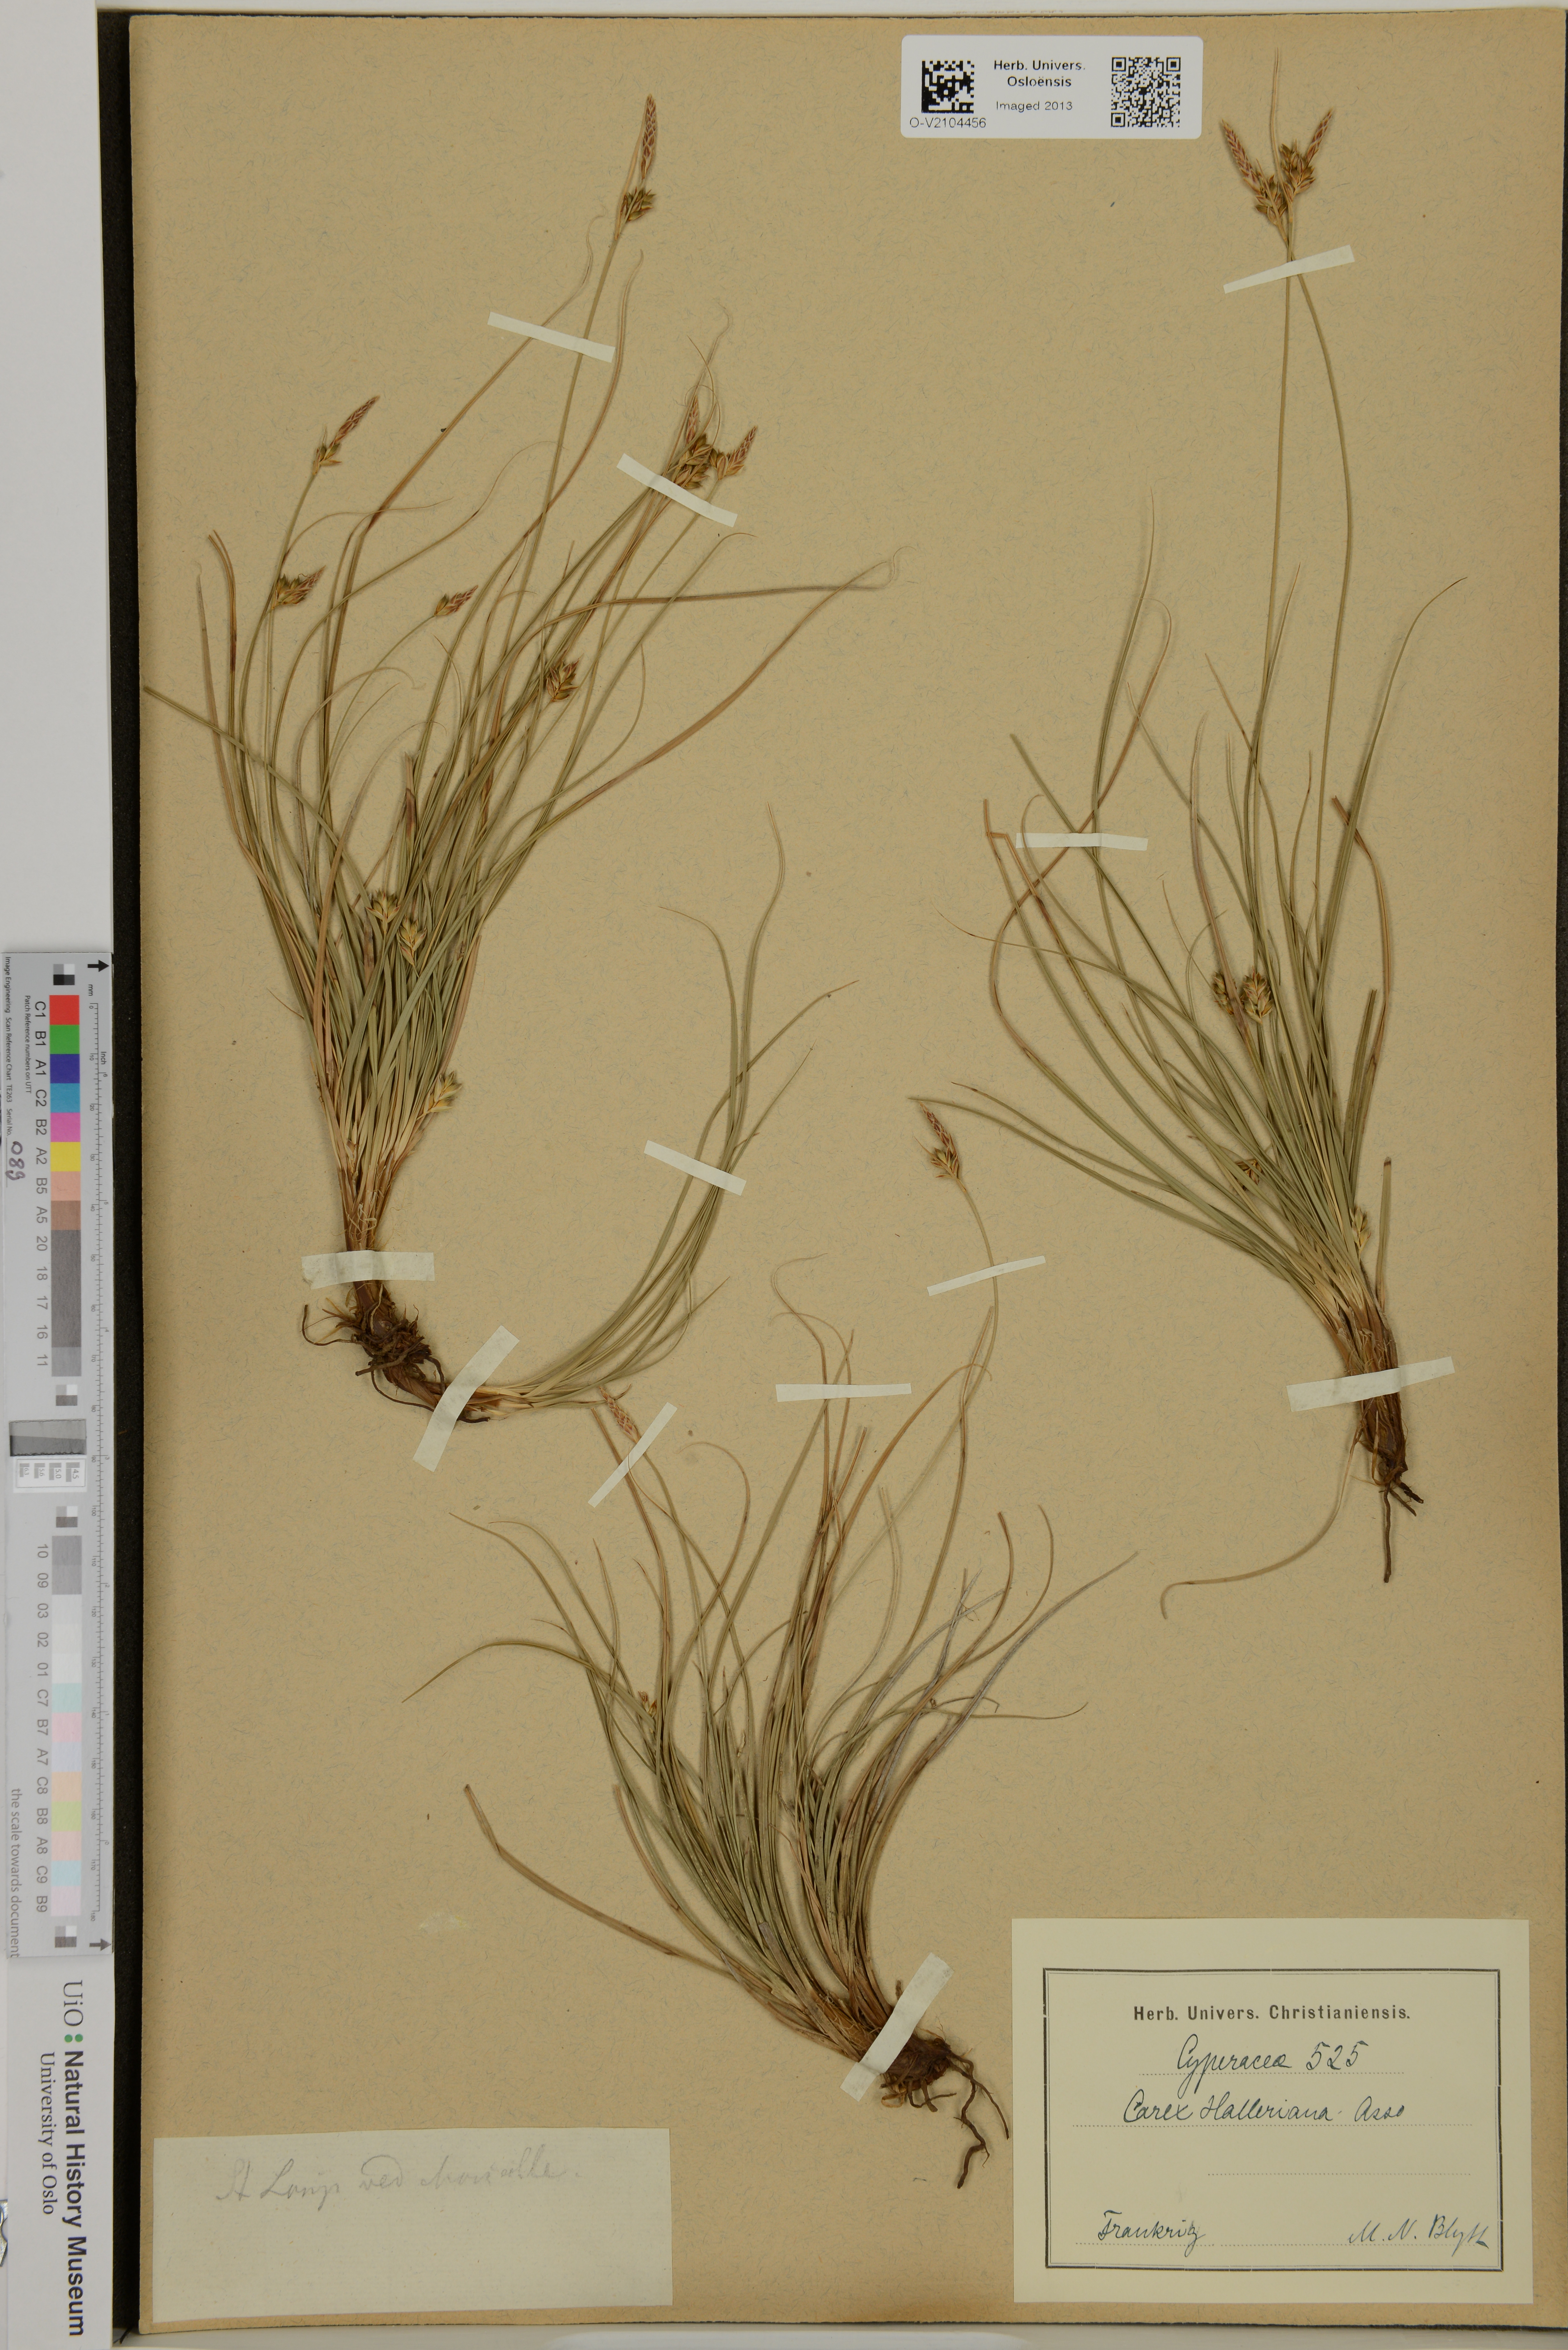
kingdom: Plantae
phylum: Tracheophyta
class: Liliopsida
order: Poales
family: Cyperaceae
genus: Carex
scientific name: Carex halleriana
